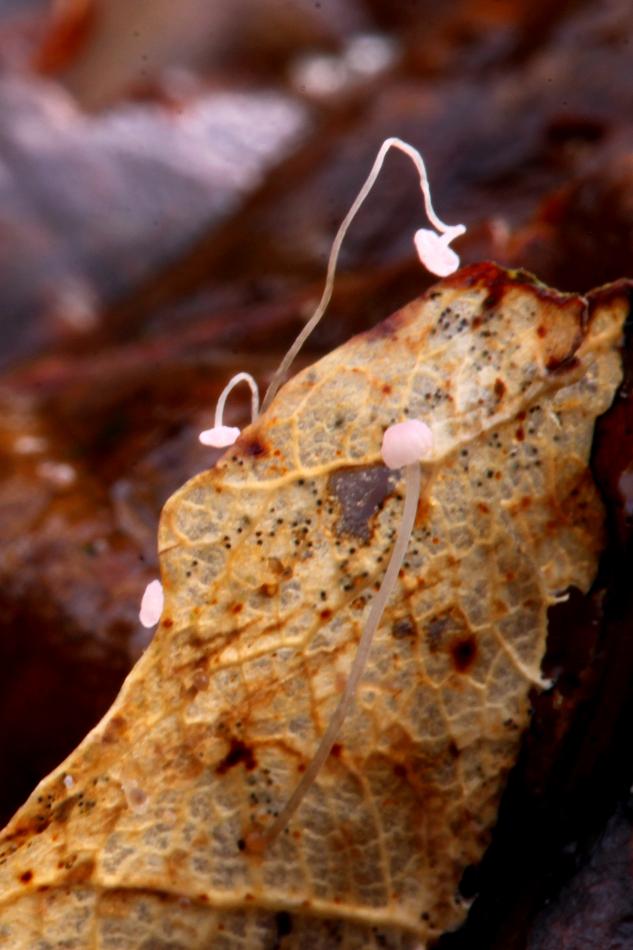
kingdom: Fungi
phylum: Basidiomycota
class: Agaricomycetes
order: Agaricales
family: Mycenaceae
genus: Mycena
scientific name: Mycena smithiana
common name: blegrød huesvamp
